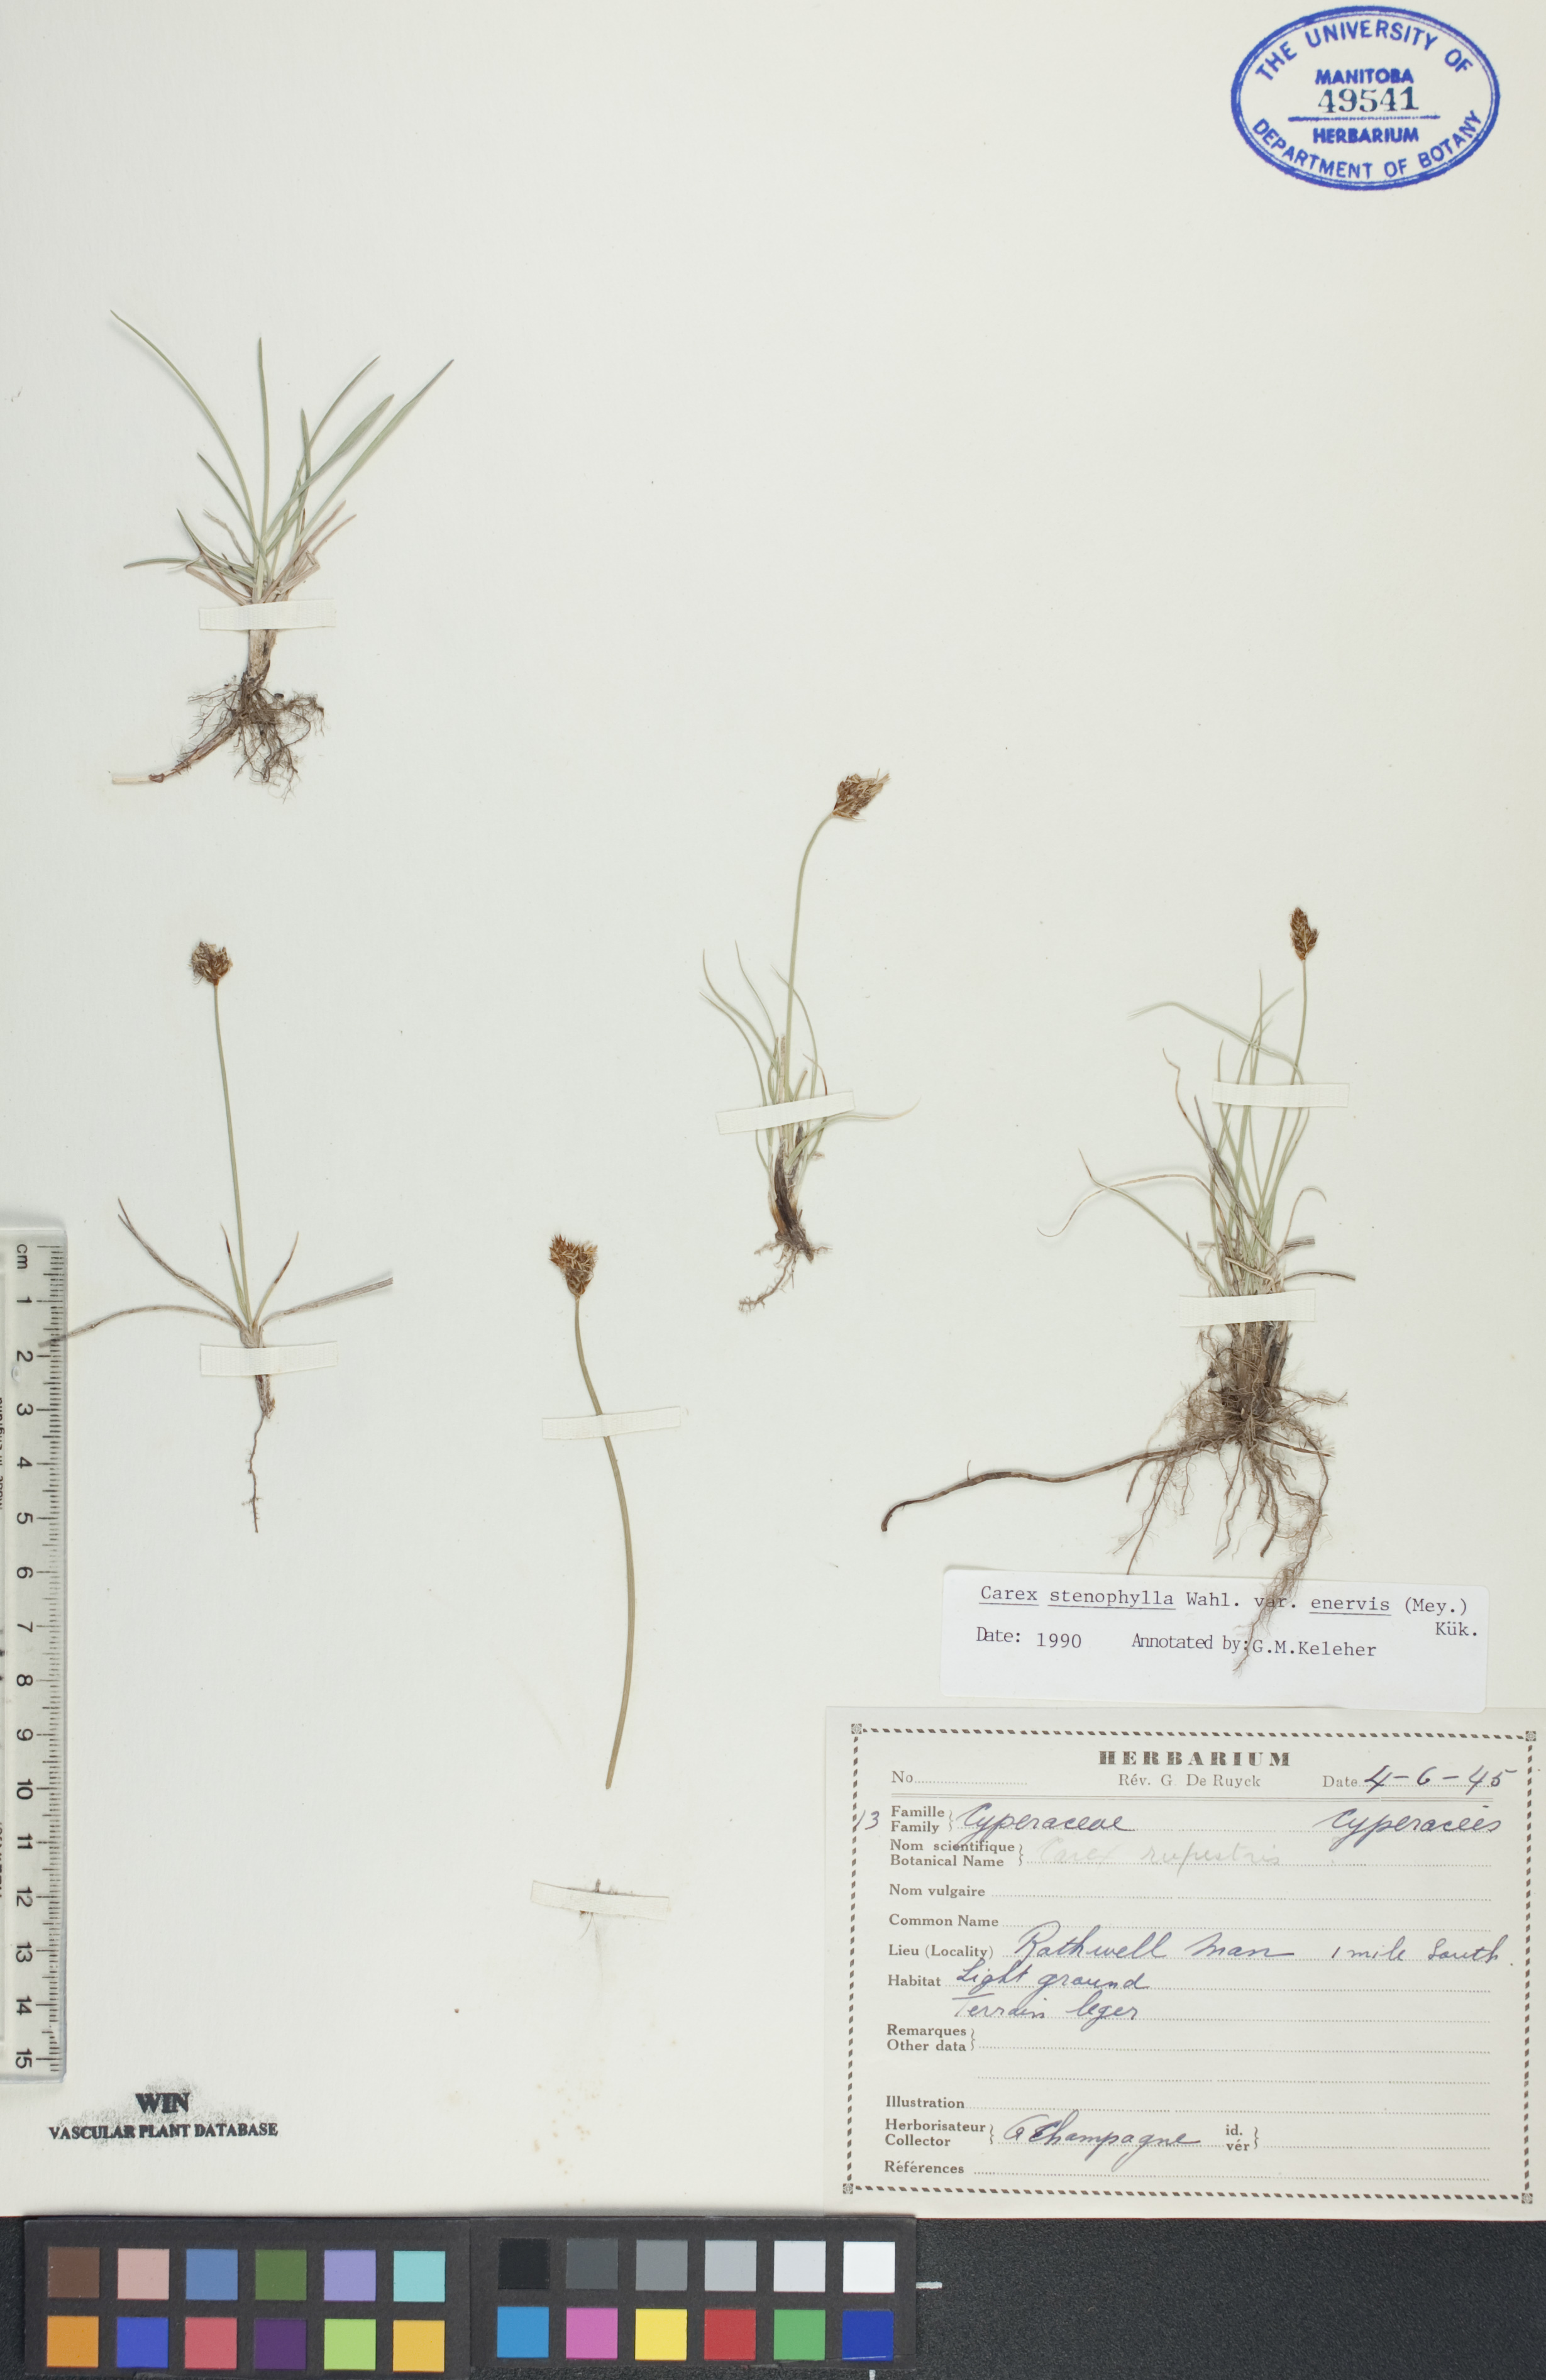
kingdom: Plantae
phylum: Tracheophyta
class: Liliopsida
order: Poales
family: Cyperaceae
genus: Carex
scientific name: Carex enervis
